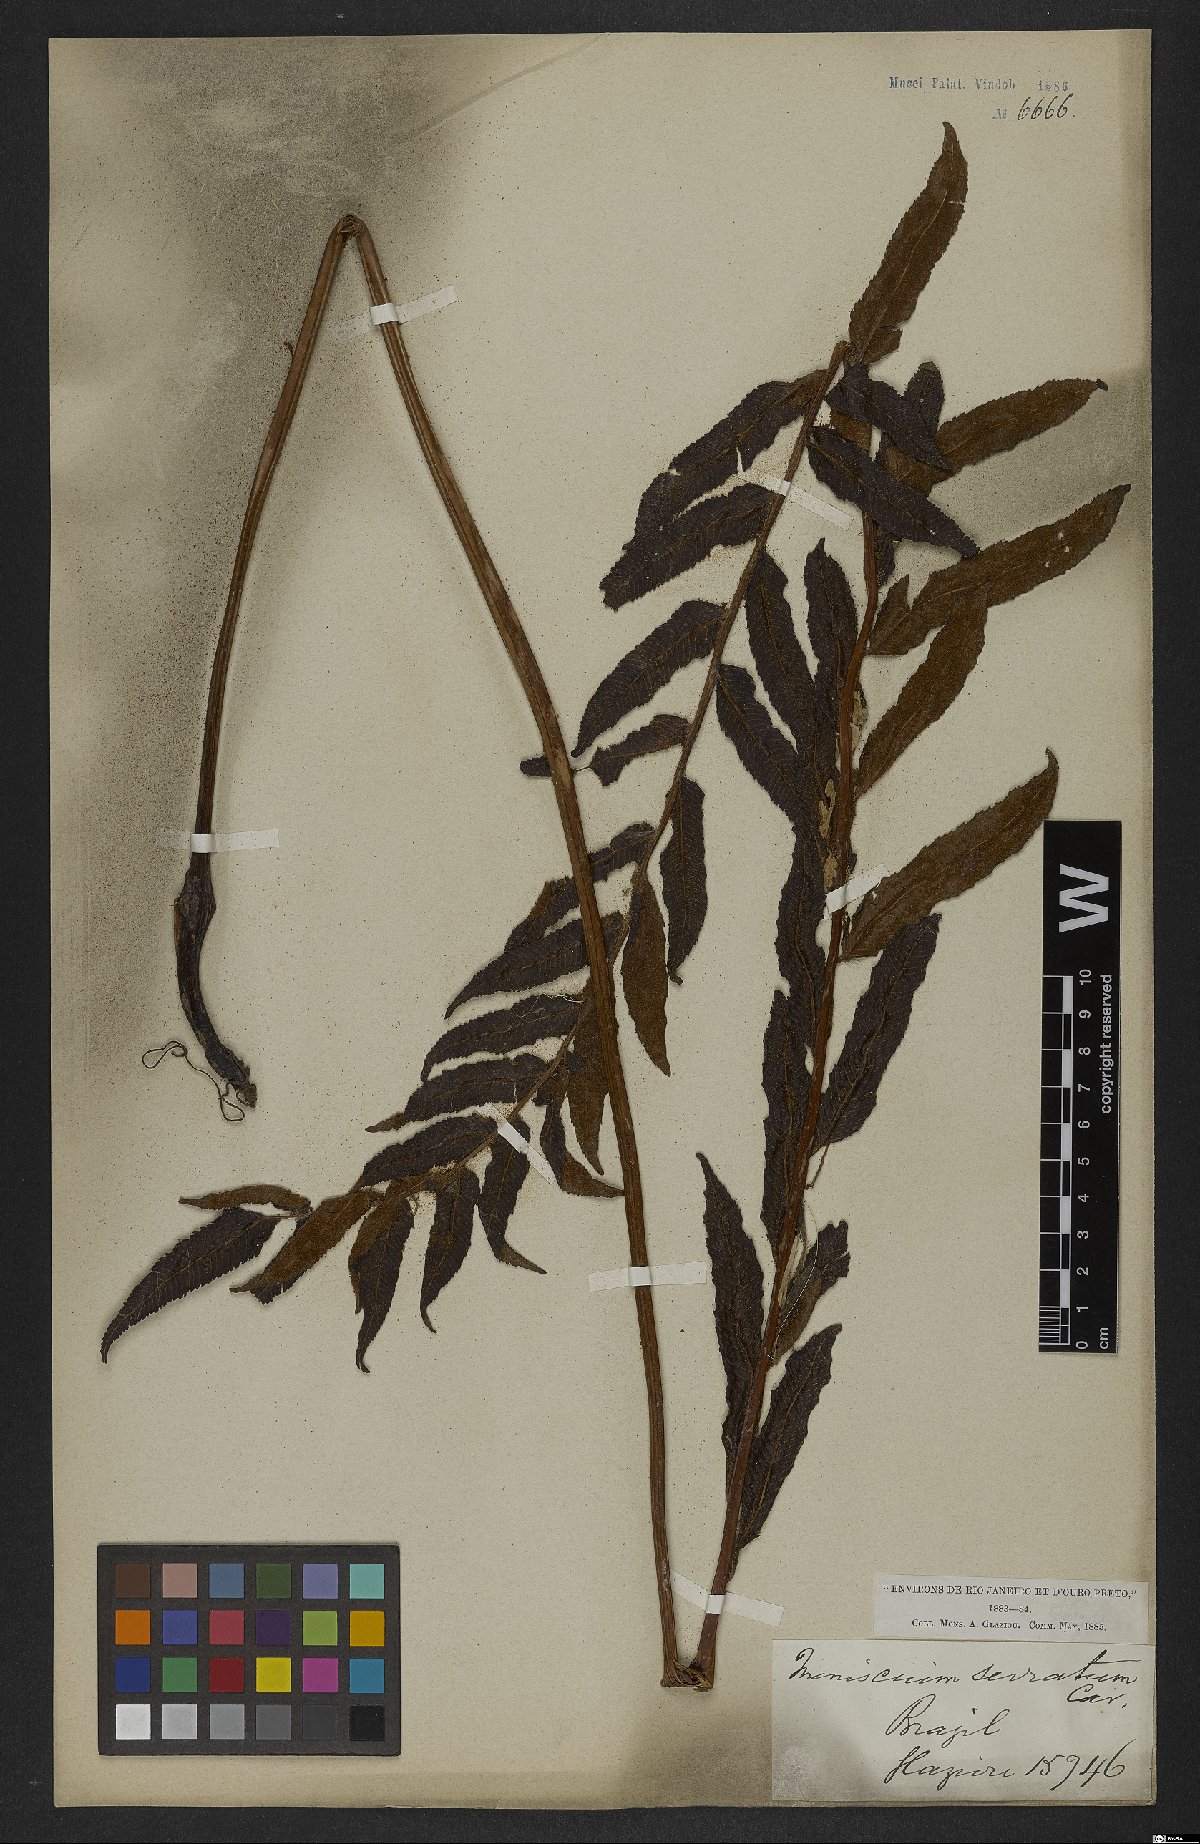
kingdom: Plantae
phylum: Tracheophyta
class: Polypodiopsida
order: Polypodiales
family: Thelypteridaceae
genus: Meniscium
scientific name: Meniscium serratum
